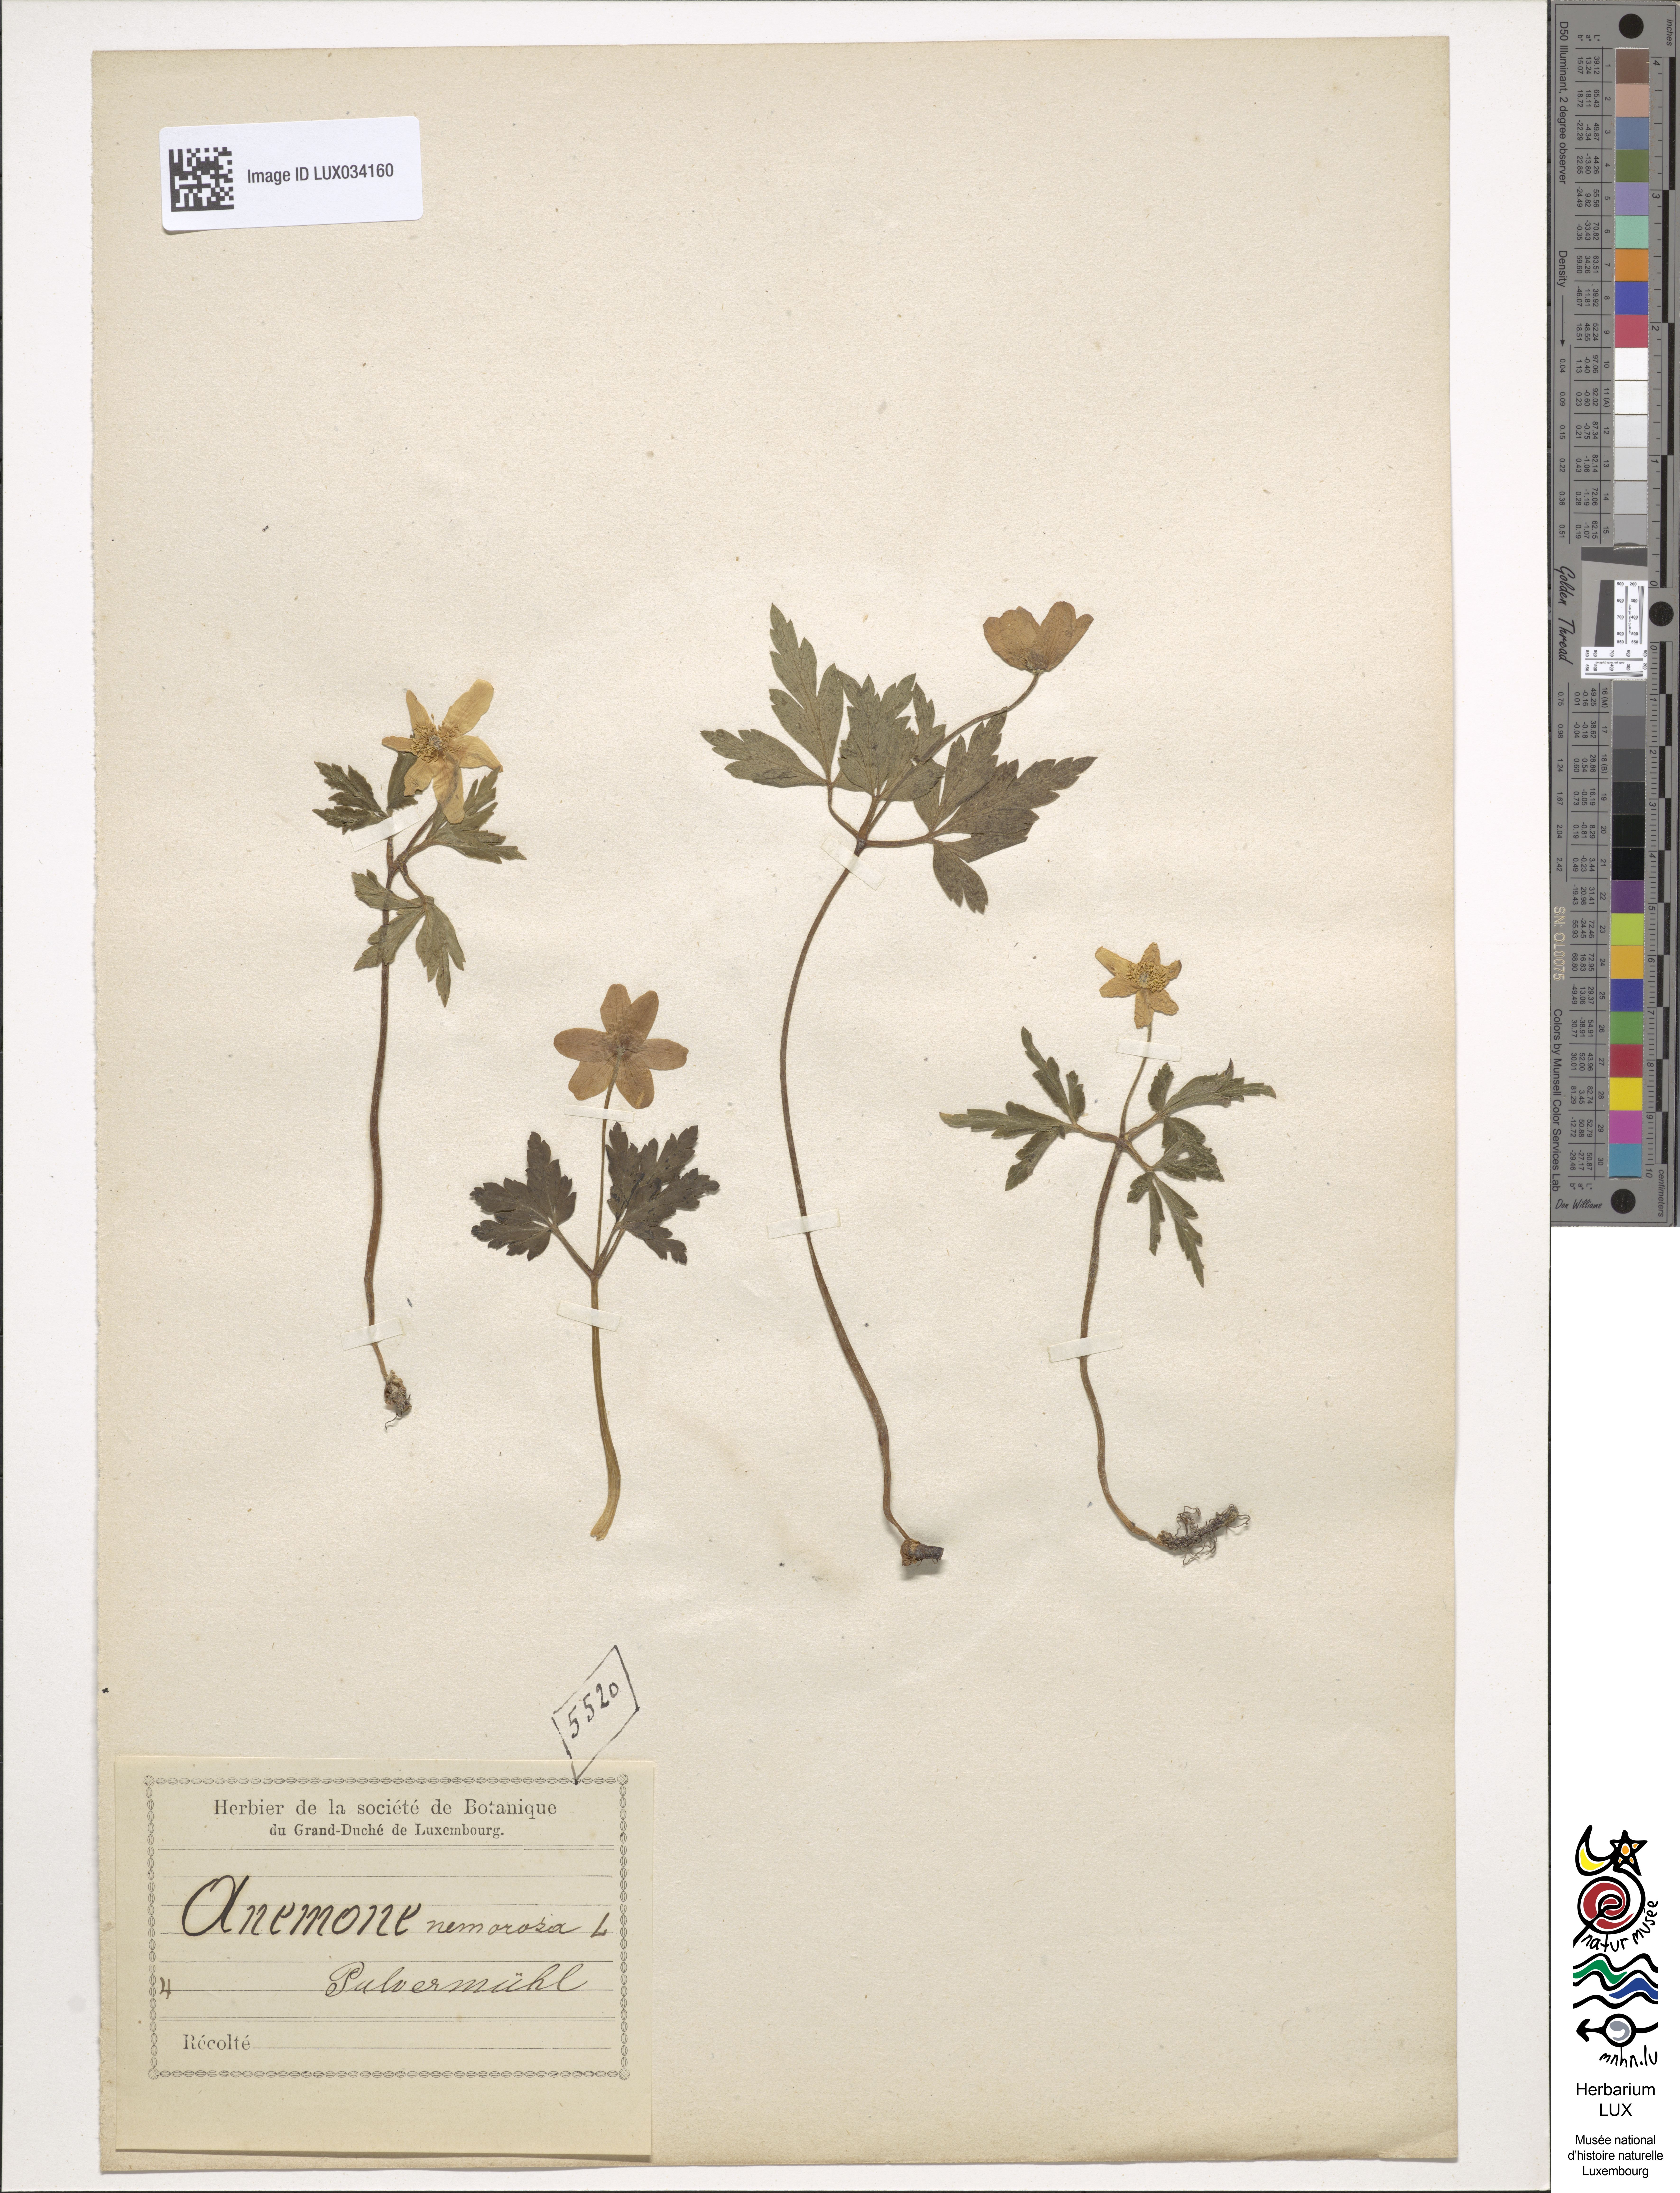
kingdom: Plantae
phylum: Tracheophyta
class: Magnoliopsida
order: Ranunculales
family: Ranunculaceae
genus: Anemone
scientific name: Anemone nemorosa
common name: Wood anemone
